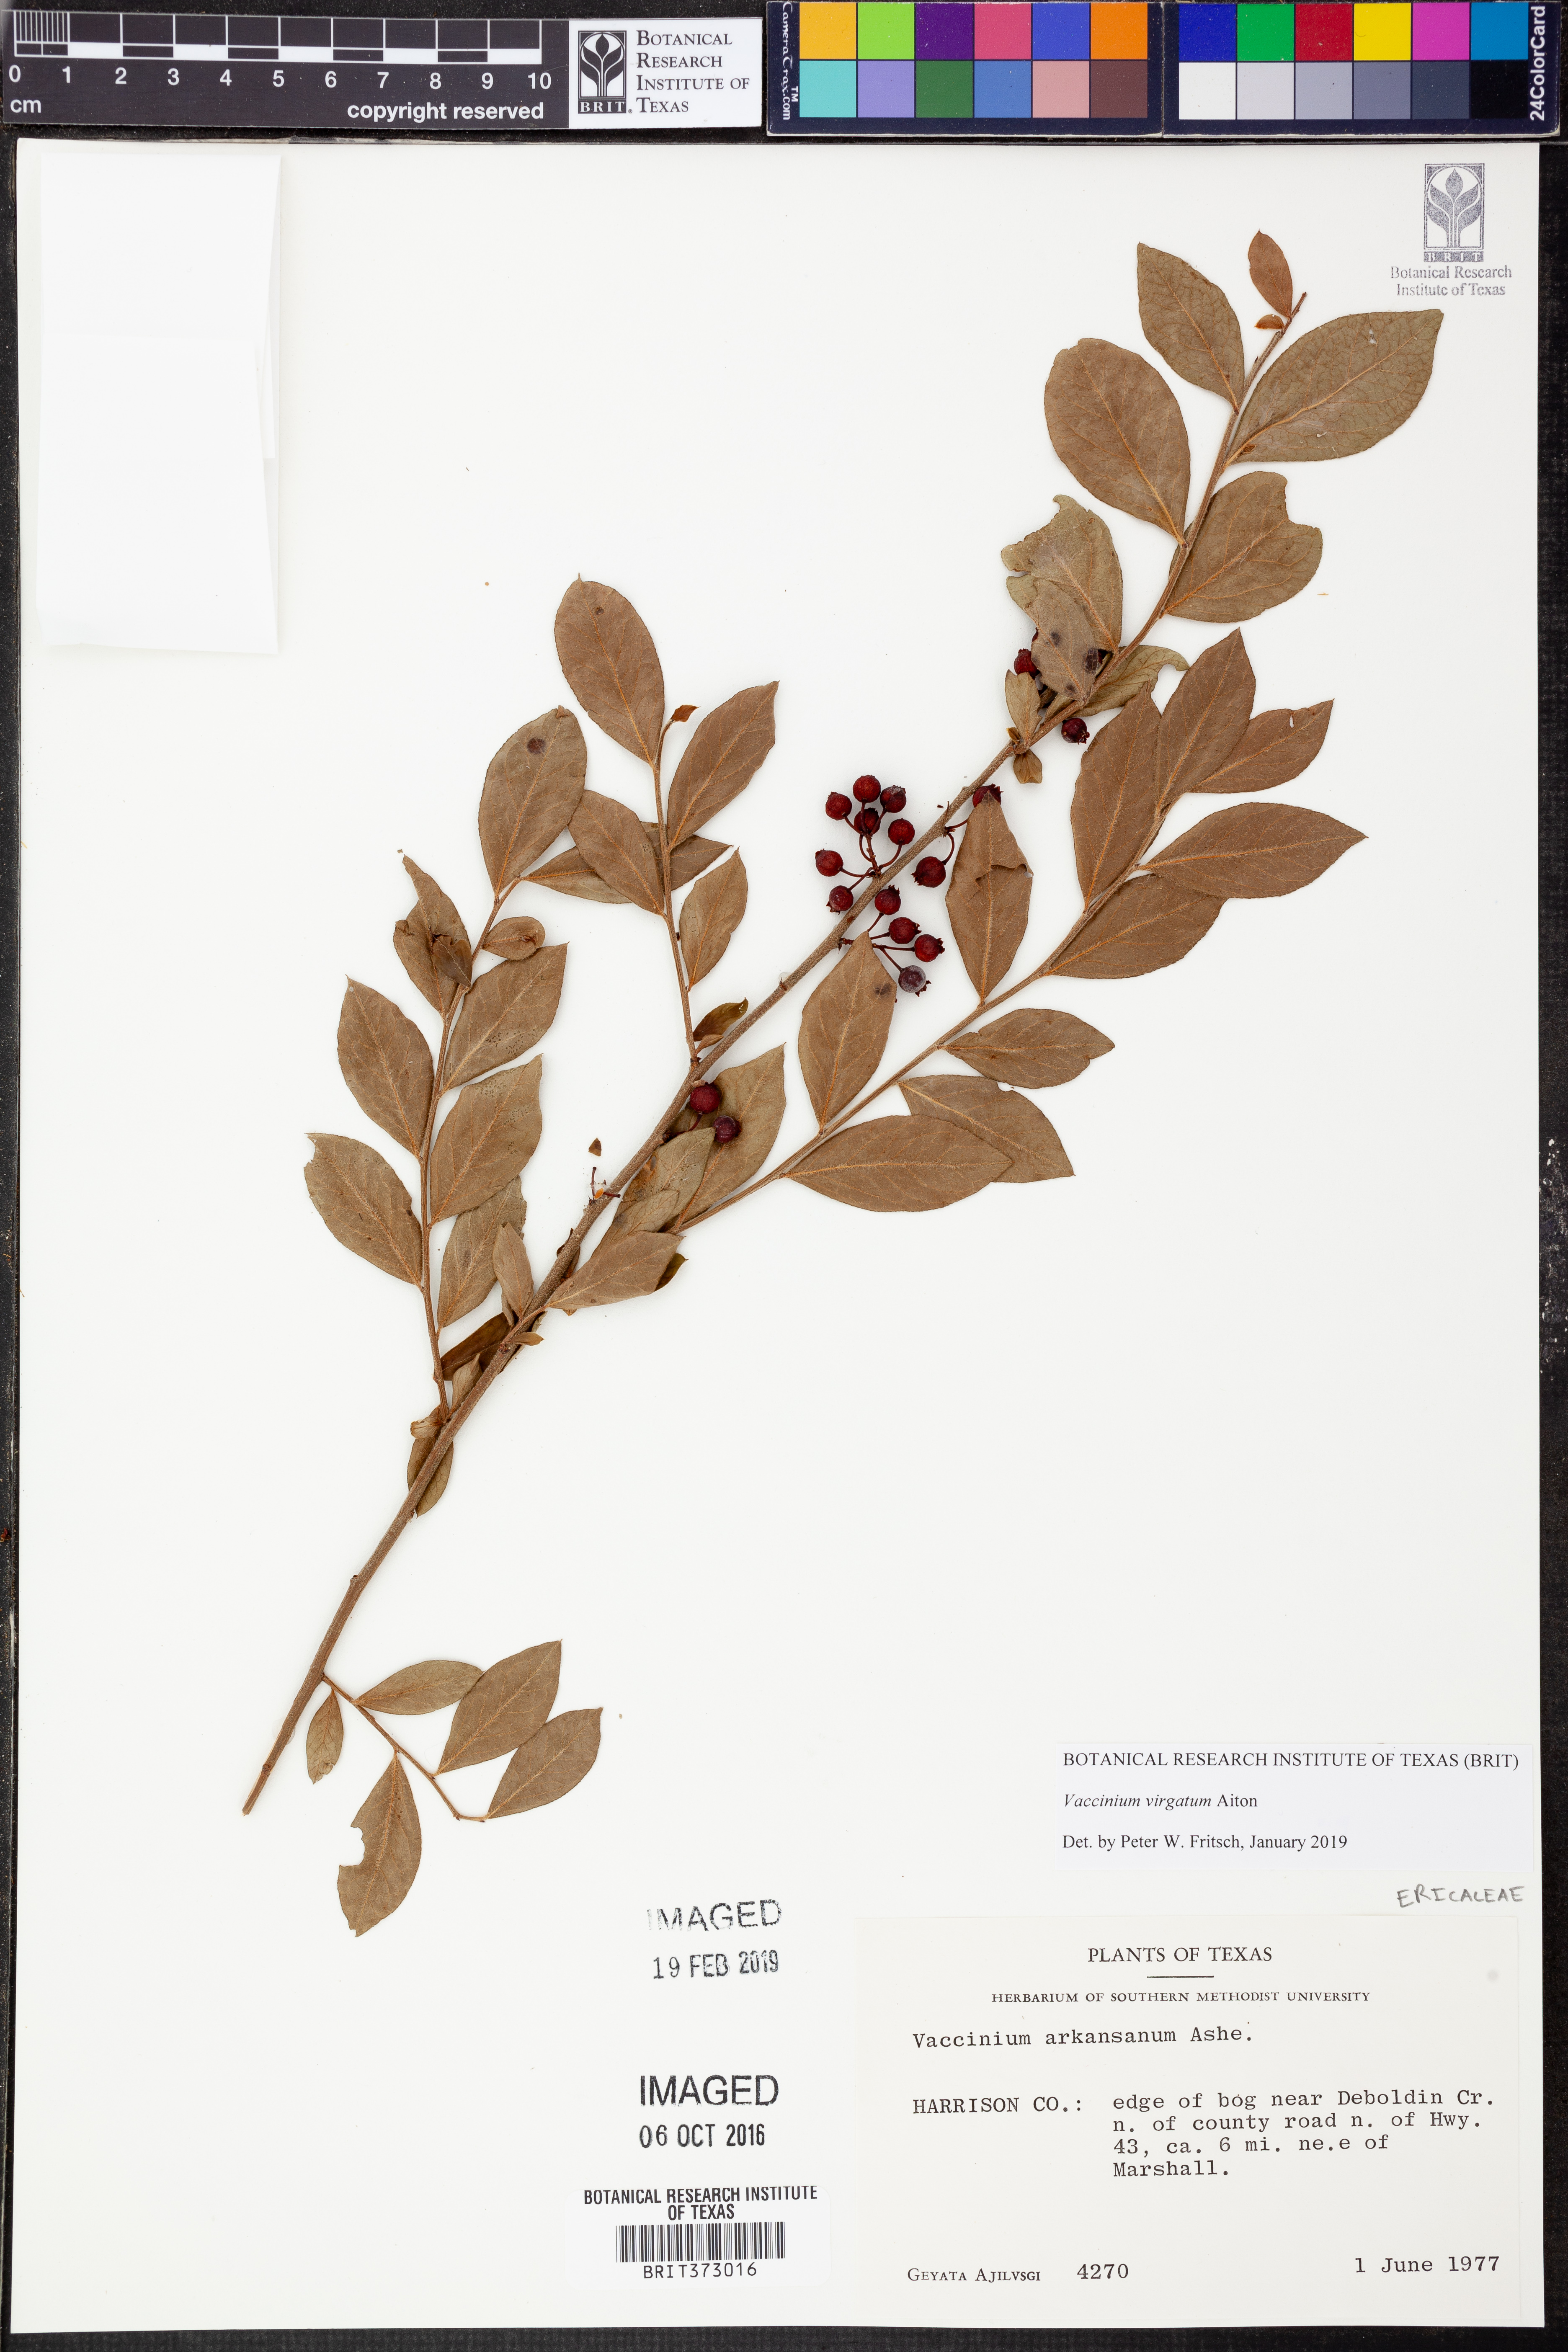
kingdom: Plantae
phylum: Tracheophyta
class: Magnoliopsida
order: Ericales
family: Ericaceae
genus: Vaccinium
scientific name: Vaccinium corymbosum
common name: Blueberry
